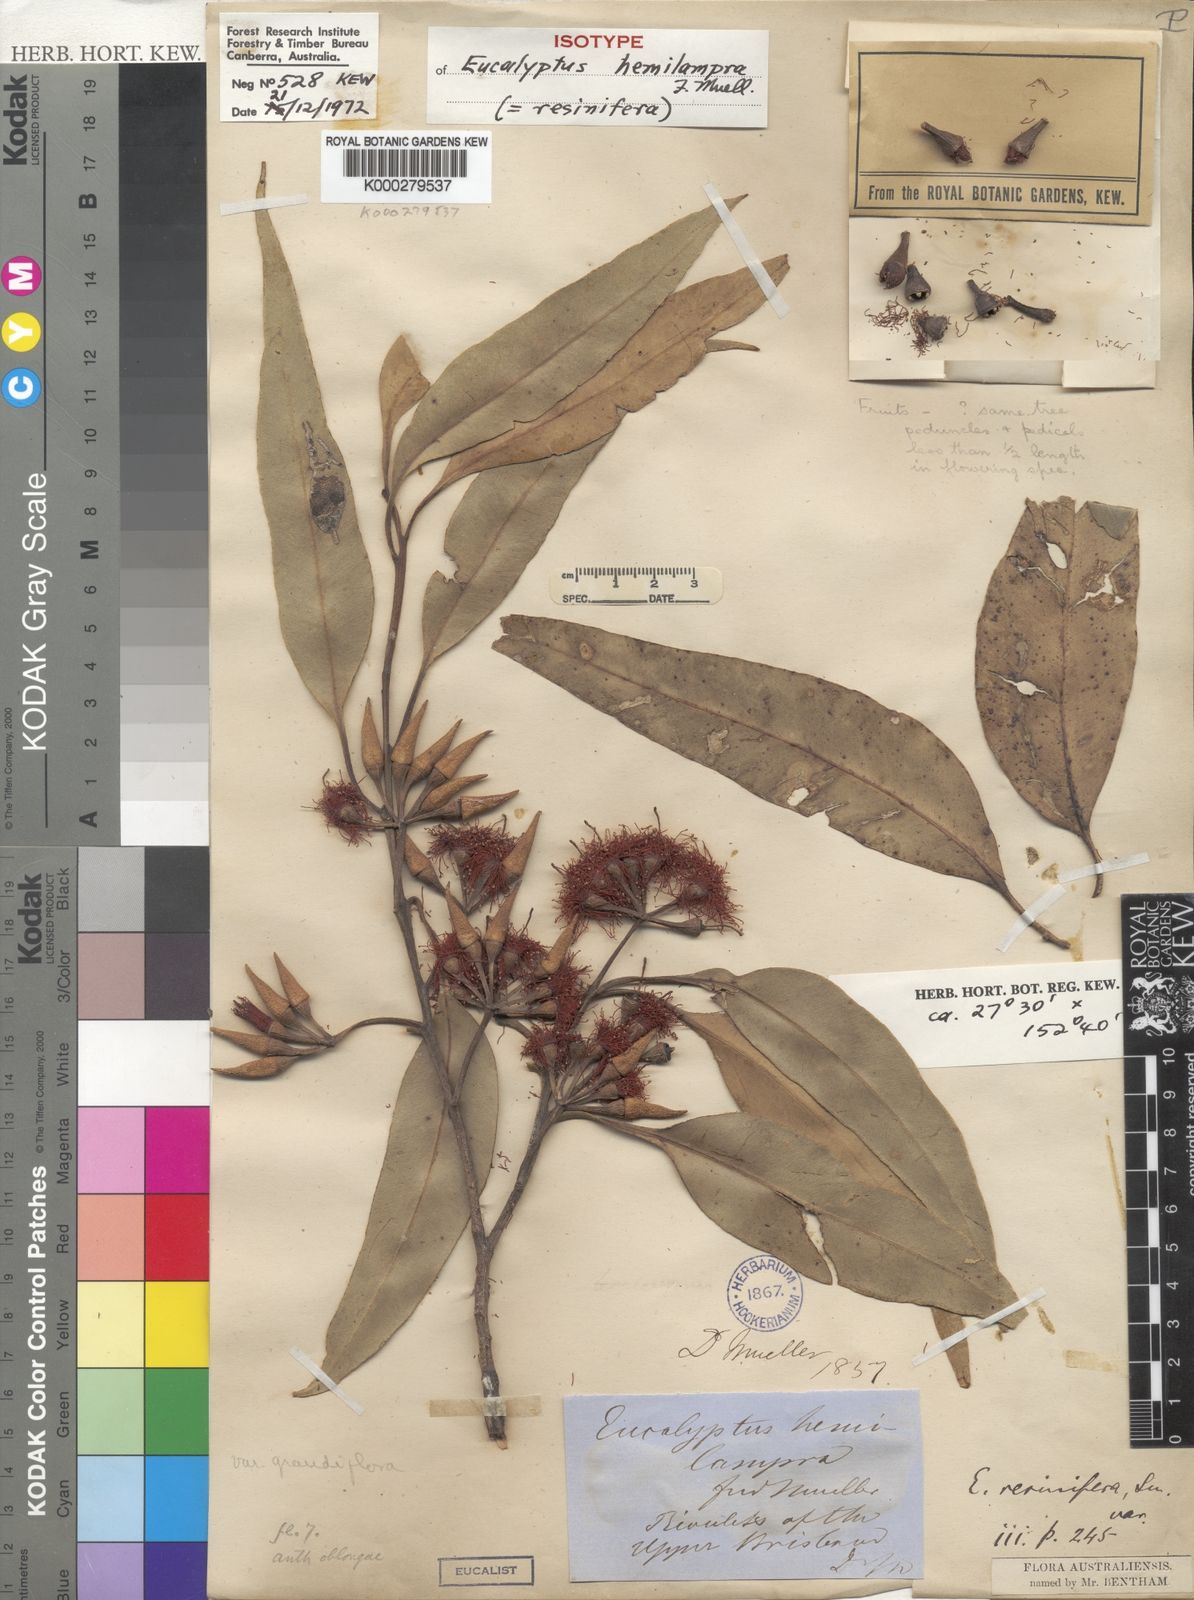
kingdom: Plantae
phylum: Tracheophyta
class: Magnoliopsida
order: Myrtales
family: Myrtaceae
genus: Eucalyptus
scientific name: Eucalyptus resinifera
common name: Red-mahogany
